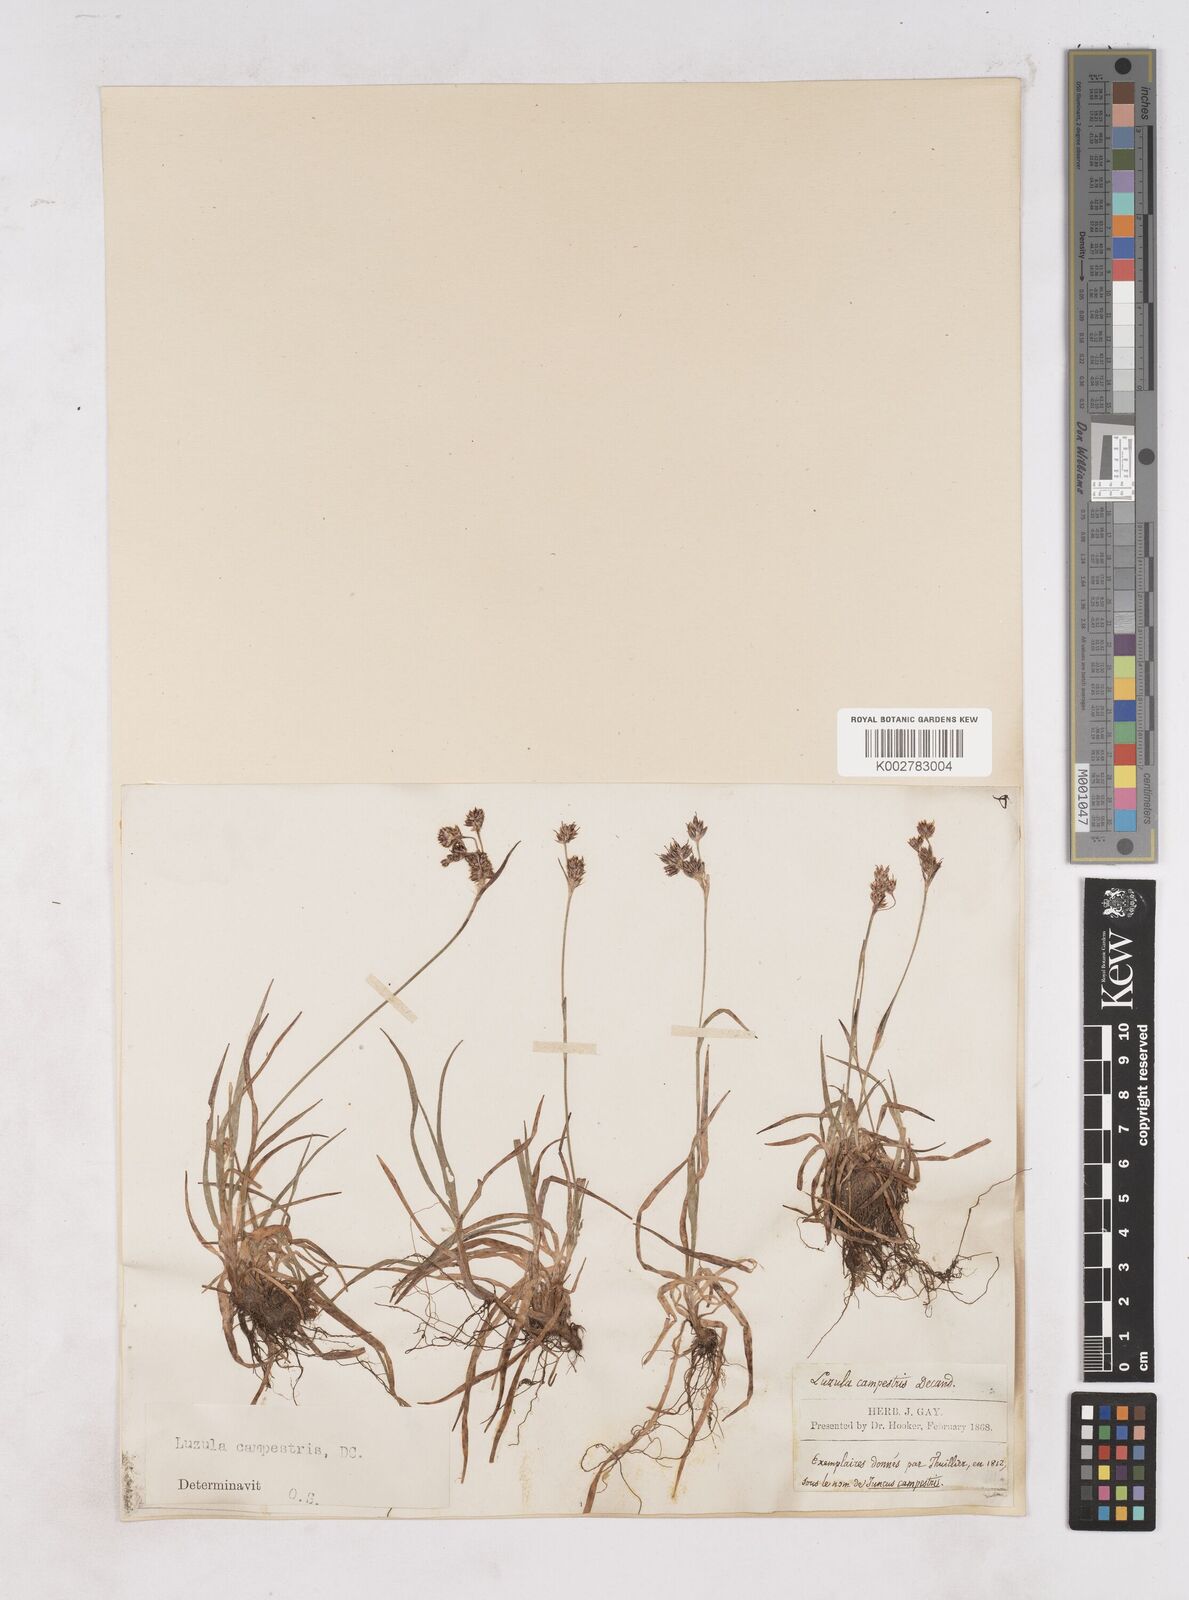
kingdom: Plantae
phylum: Tracheophyta
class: Liliopsida
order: Poales
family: Juncaceae
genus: Luzula
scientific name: Luzula campestris
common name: Field wood-rush
